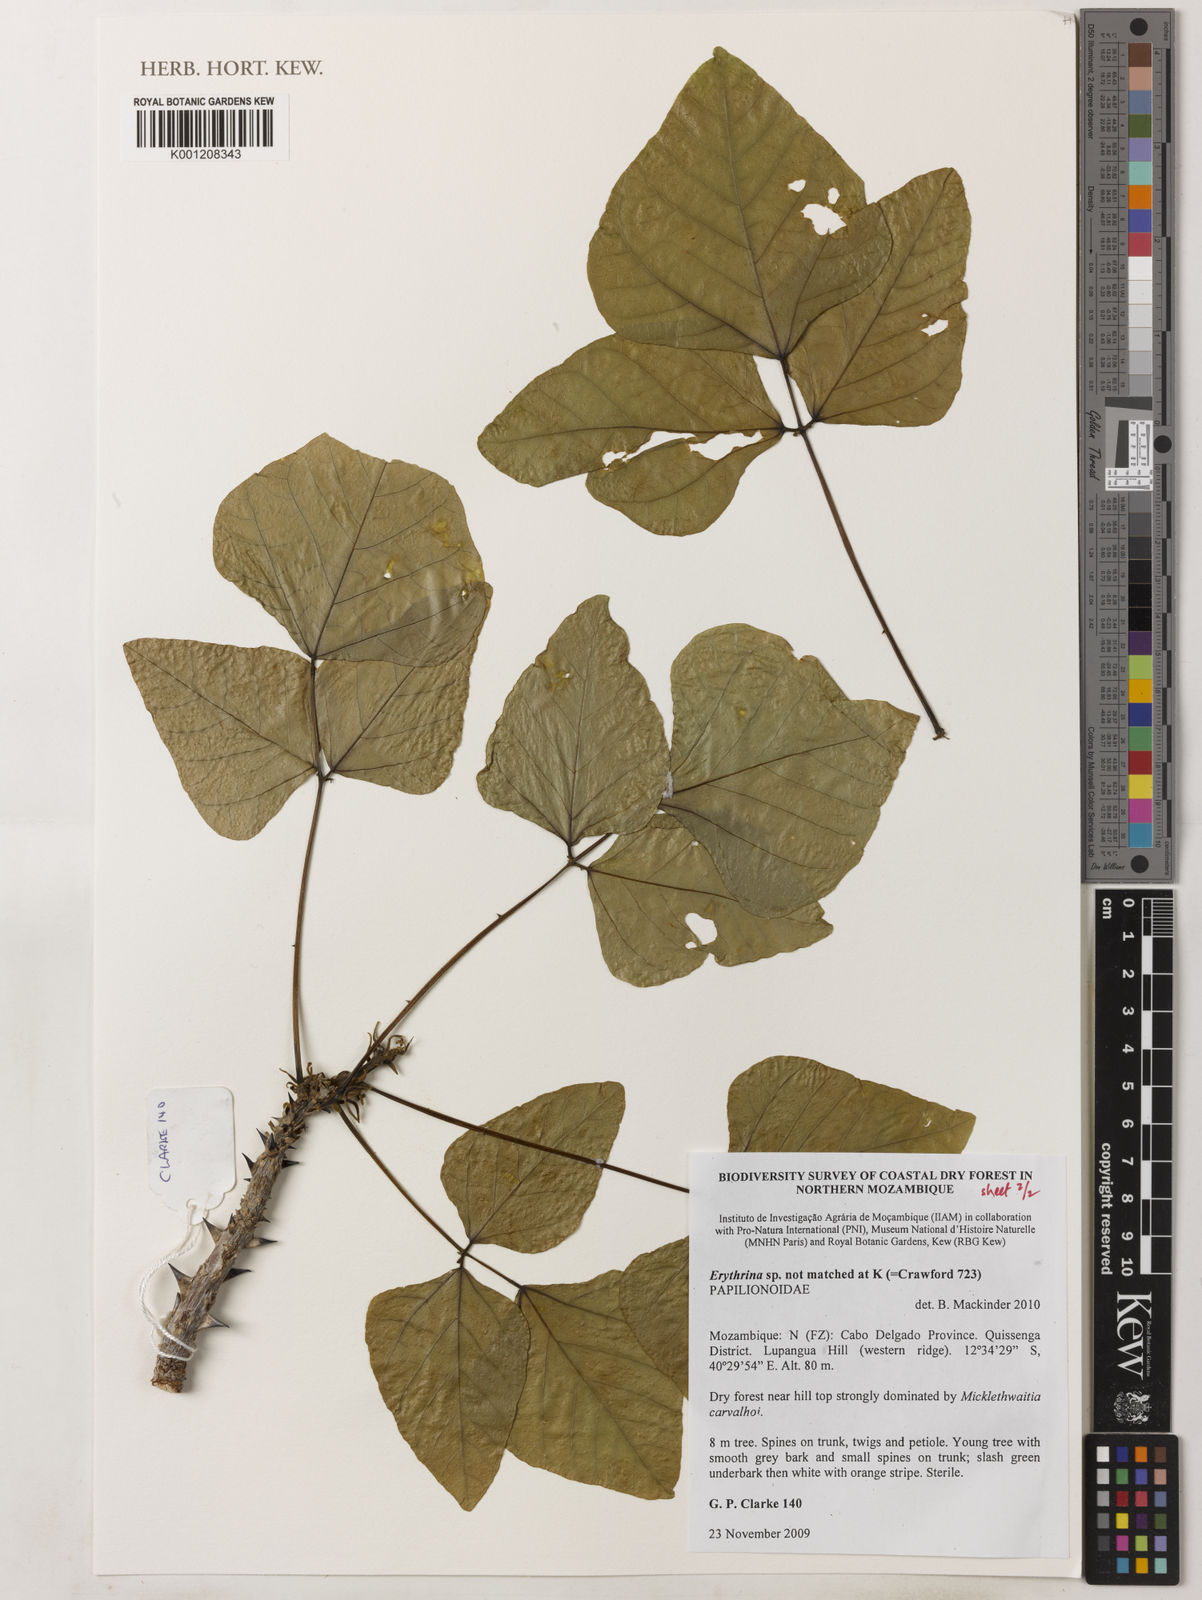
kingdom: Plantae
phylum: Tracheophyta
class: Magnoliopsida
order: Fabales
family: Fabaceae
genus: Erythrina
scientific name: Erythrina
